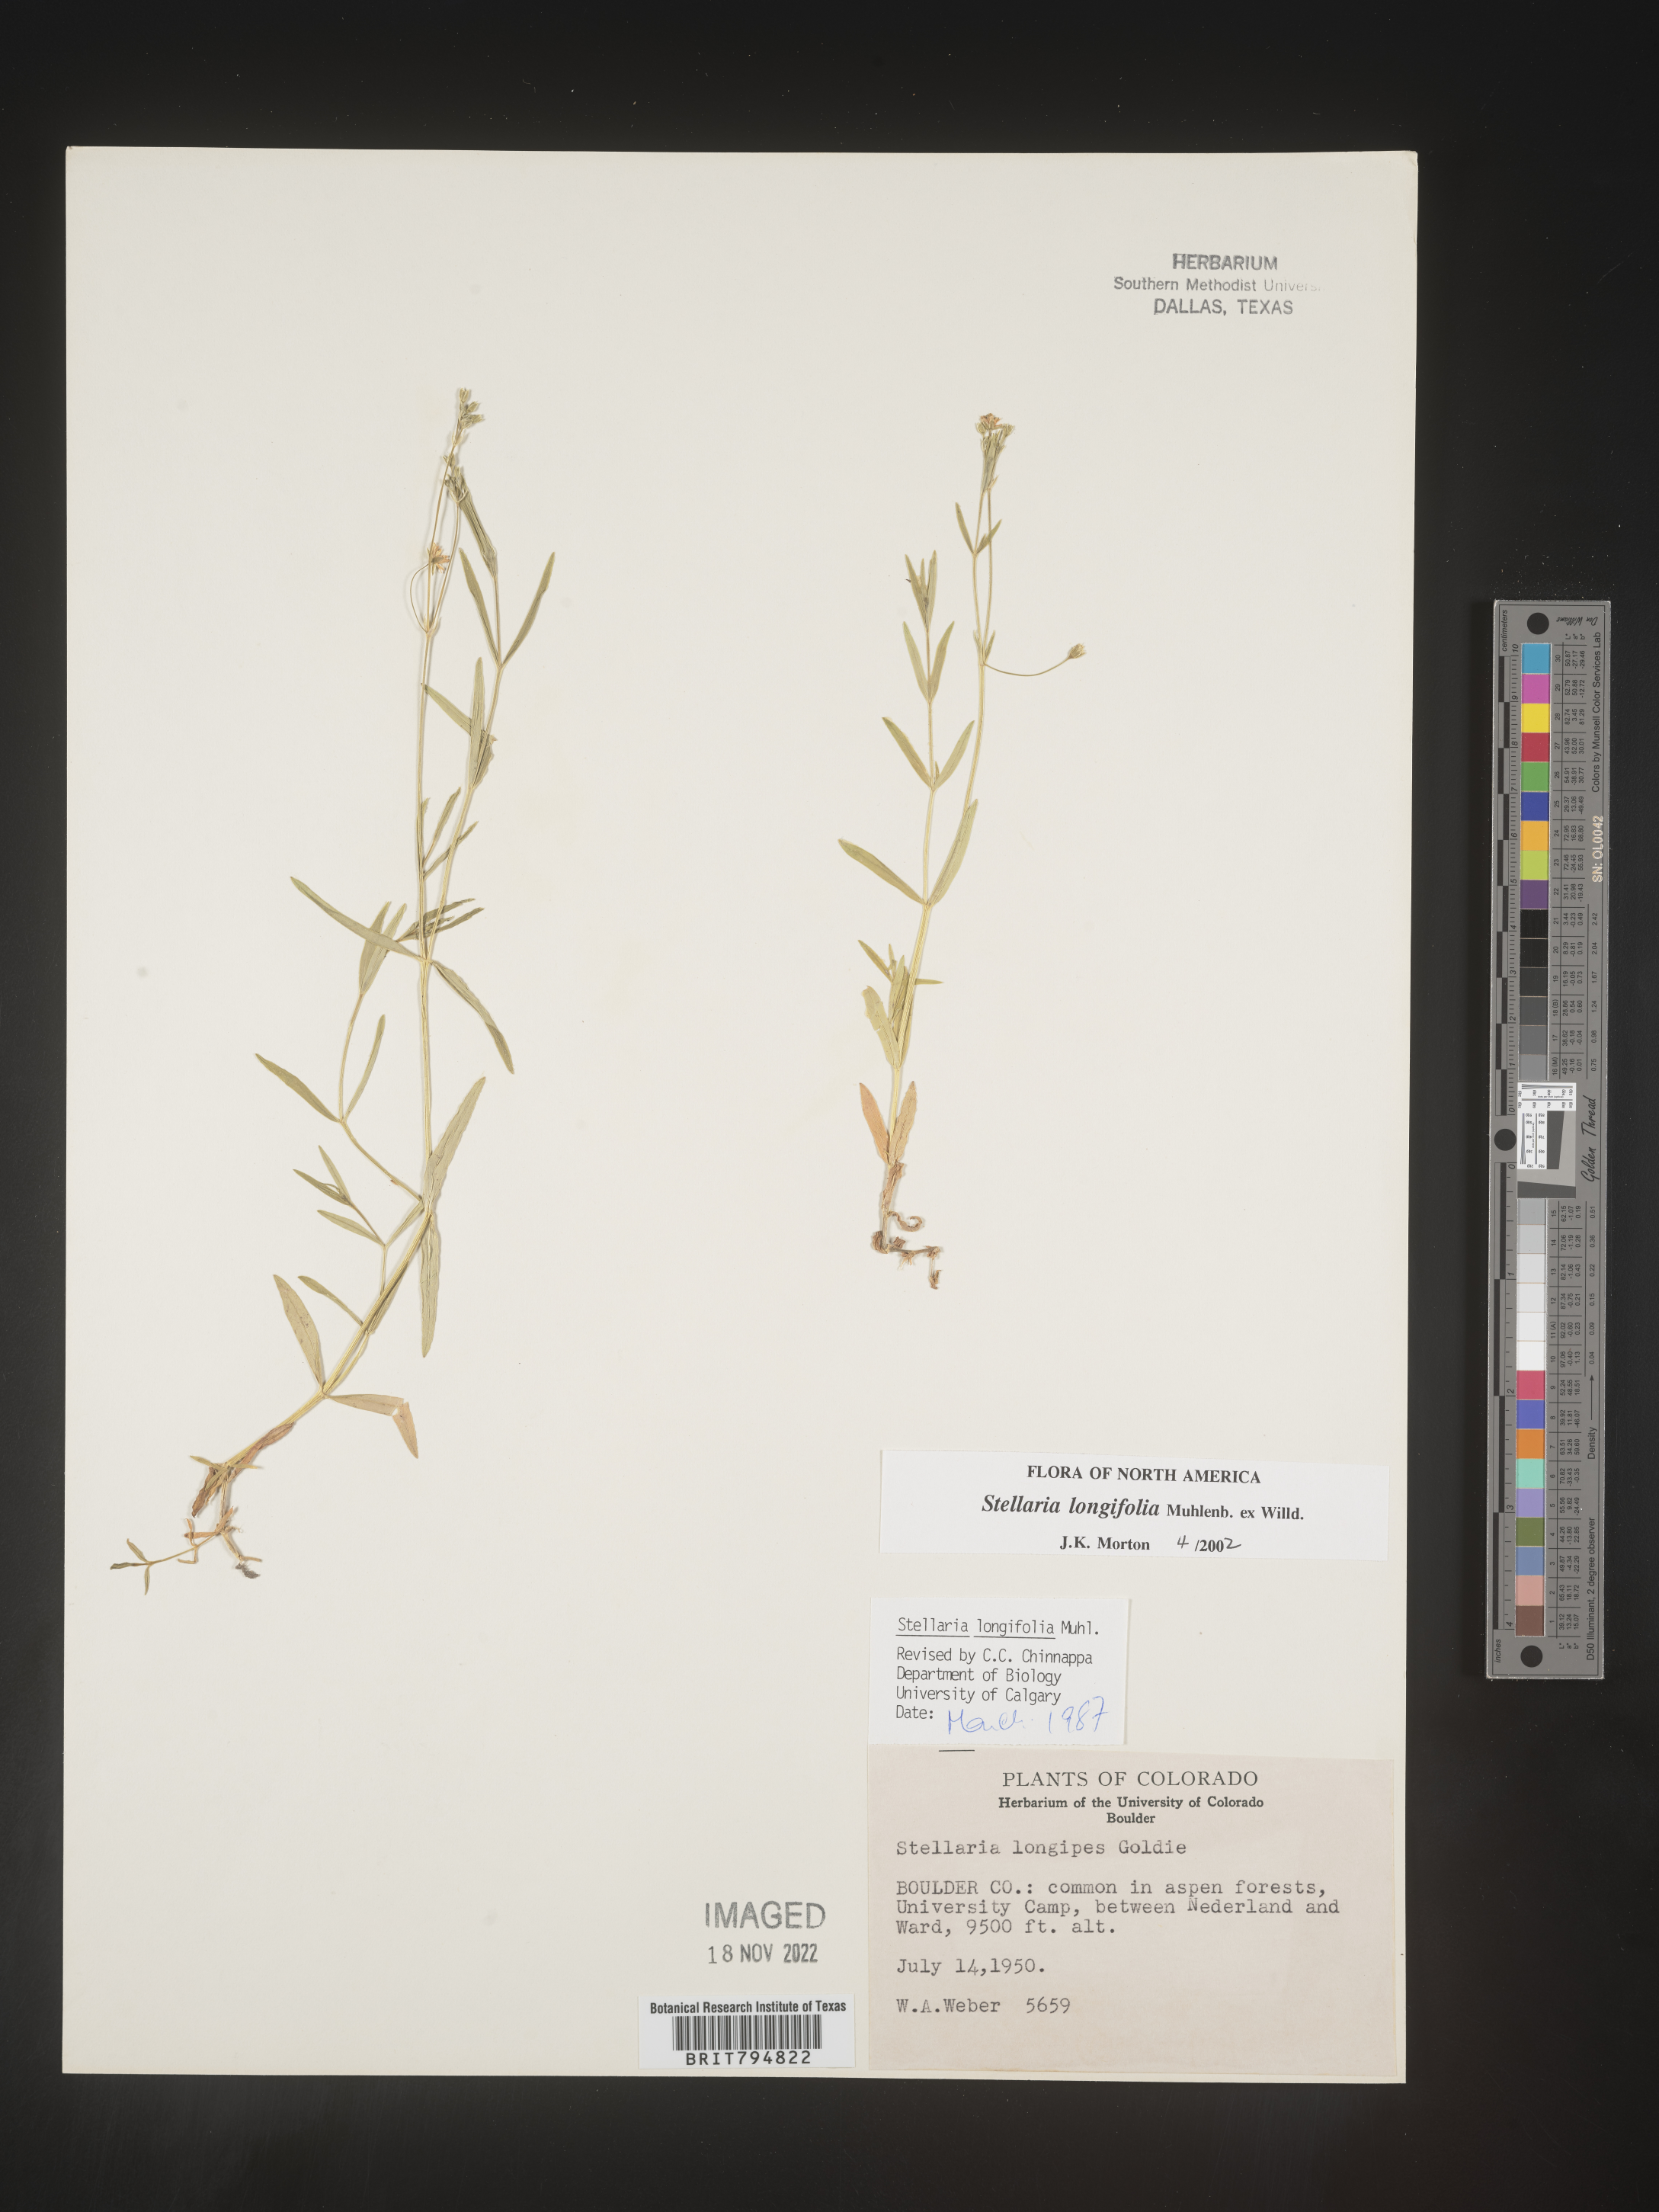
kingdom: Plantae
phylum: Tracheophyta
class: Magnoliopsida
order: Caryophyllales
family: Caryophyllaceae
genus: Stellaria
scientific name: Stellaria longifolia
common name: Long-leaved chickweed
